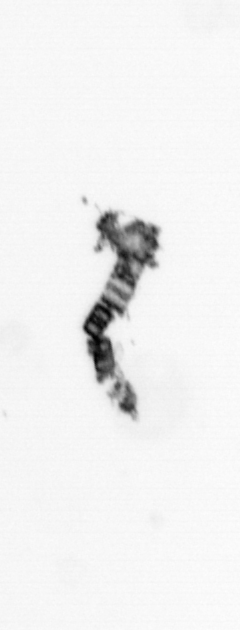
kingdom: Chromista
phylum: Ochrophyta
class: Bacillariophyceae
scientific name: Bacillariophyceae
